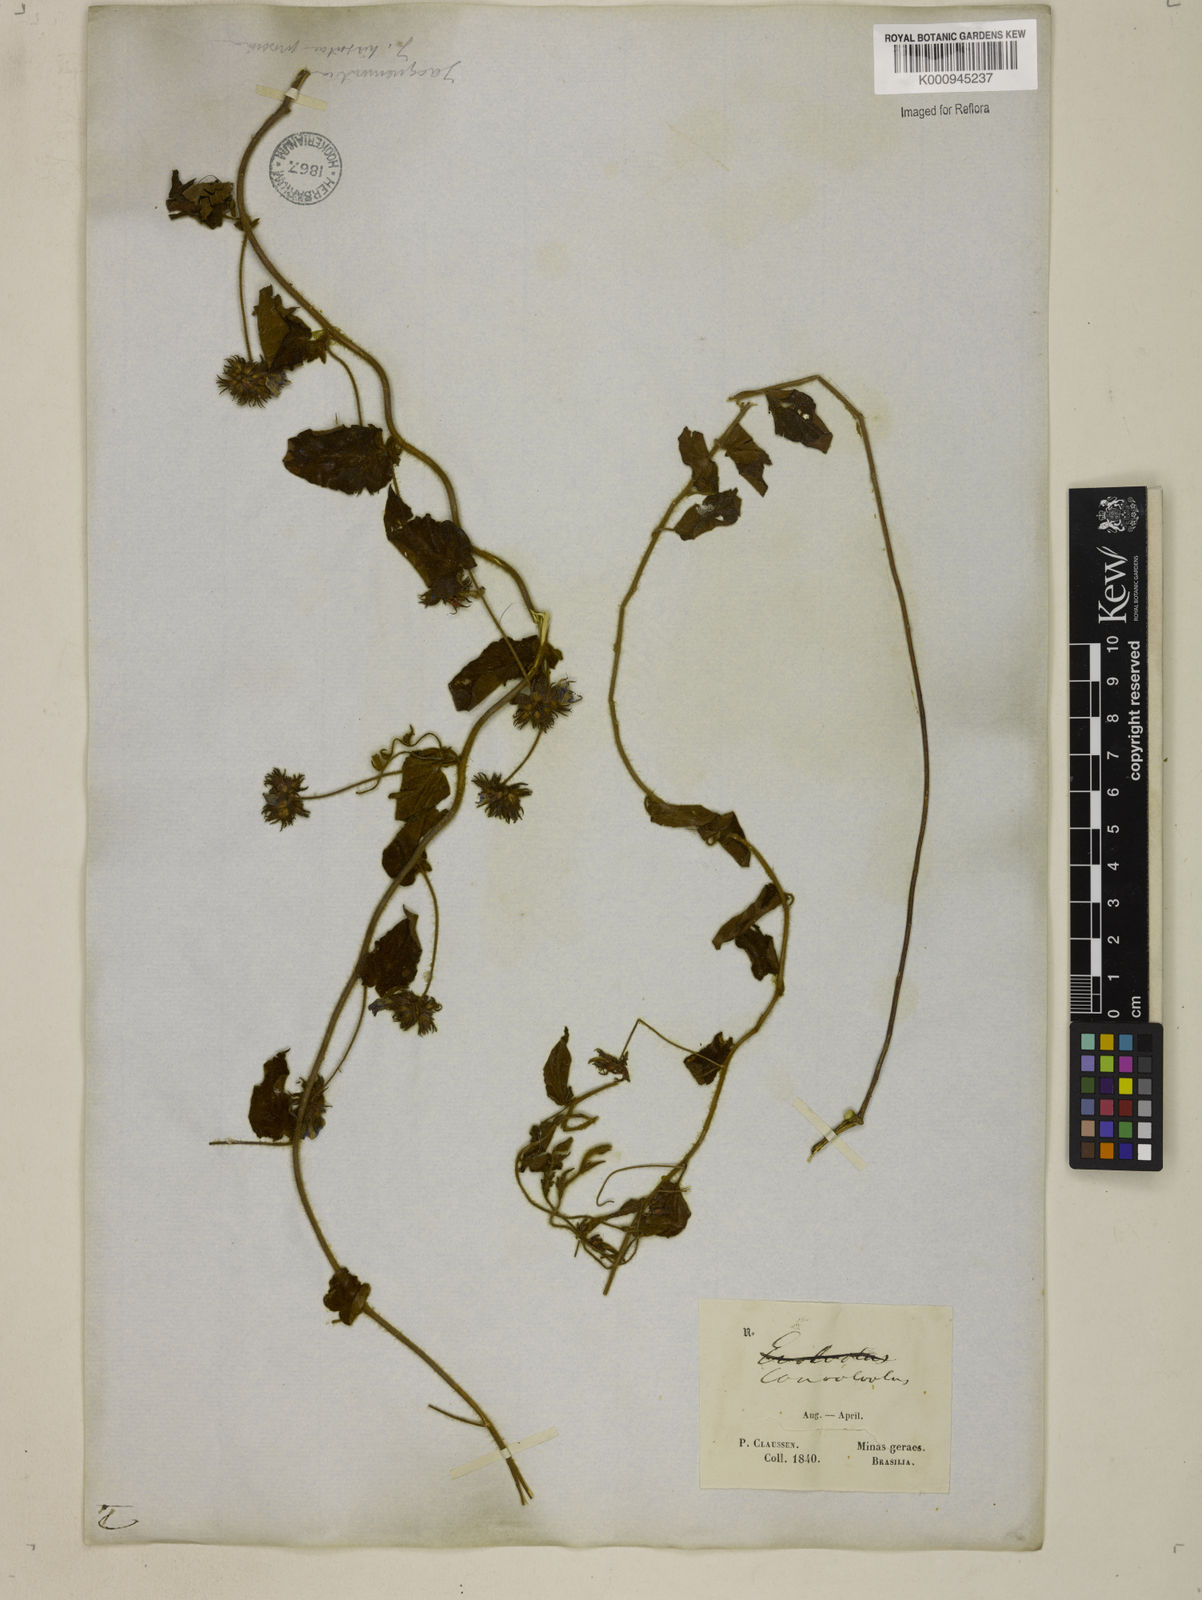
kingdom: Plantae
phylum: Tracheophyta
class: Magnoliopsida
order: Solanales
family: Convolvulaceae
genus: Jacquemontia
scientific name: Jacquemontia sphaerostigma
